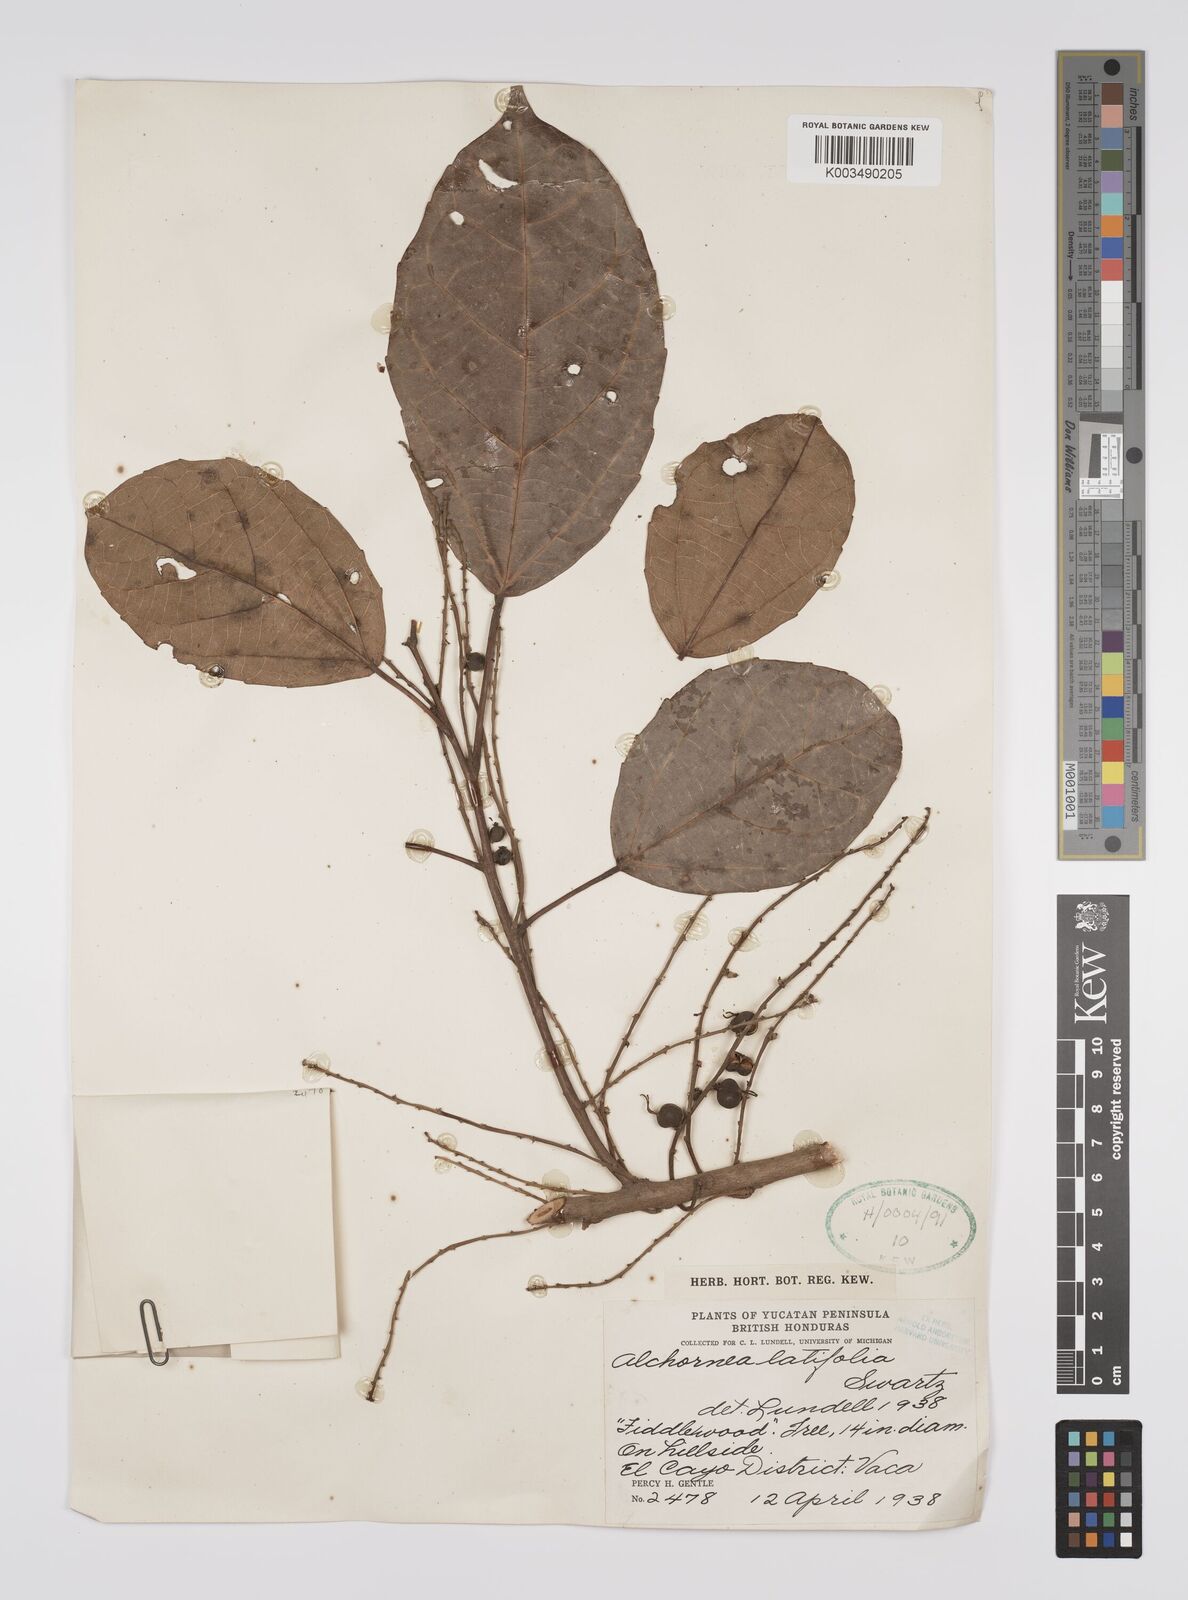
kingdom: Plantae
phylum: Tracheophyta
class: Magnoliopsida
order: Malpighiales
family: Euphorbiaceae
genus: Alchornea
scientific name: Alchornea latifolia
